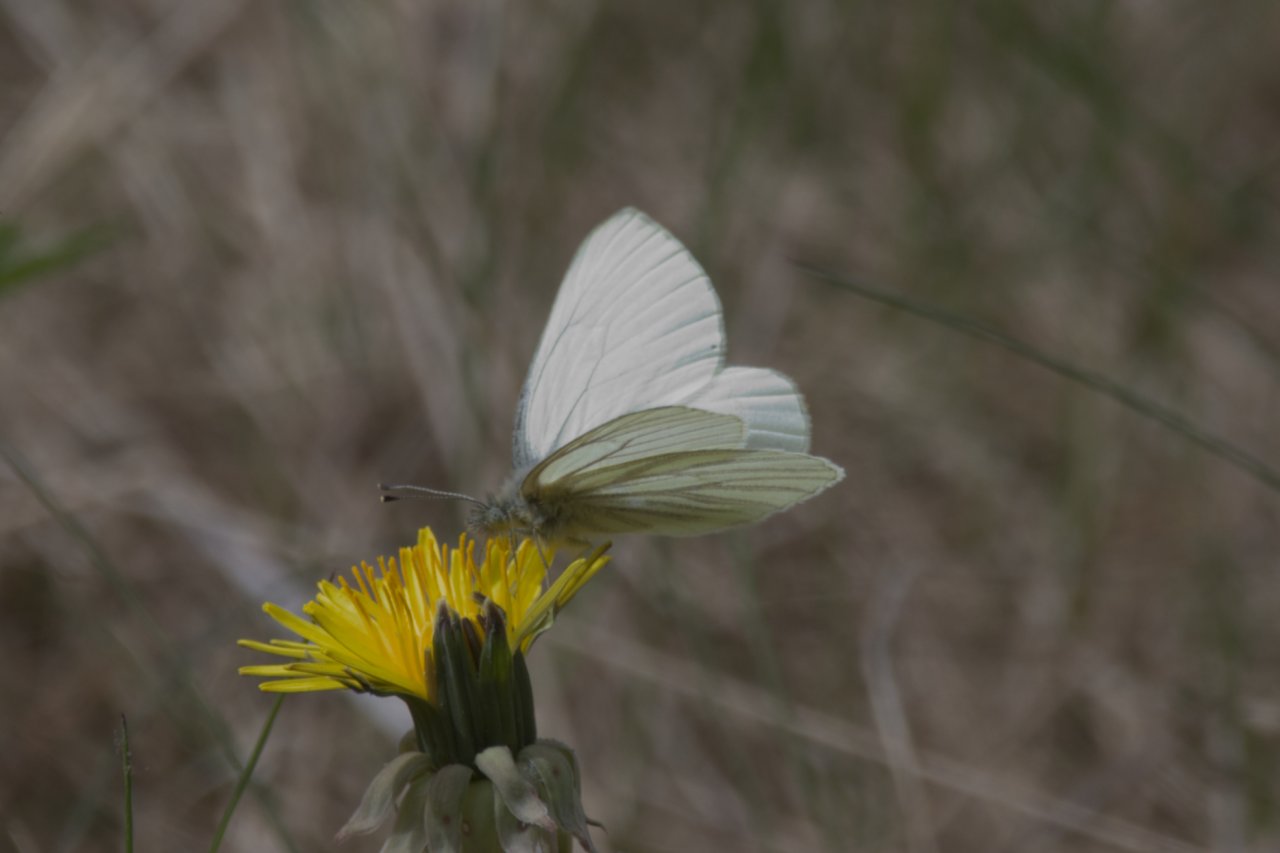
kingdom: Animalia
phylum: Arthropoda
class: Insecta
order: Lepidoptera
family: Pieridae
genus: Pieris
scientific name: Pieris marginalis
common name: Margined White
